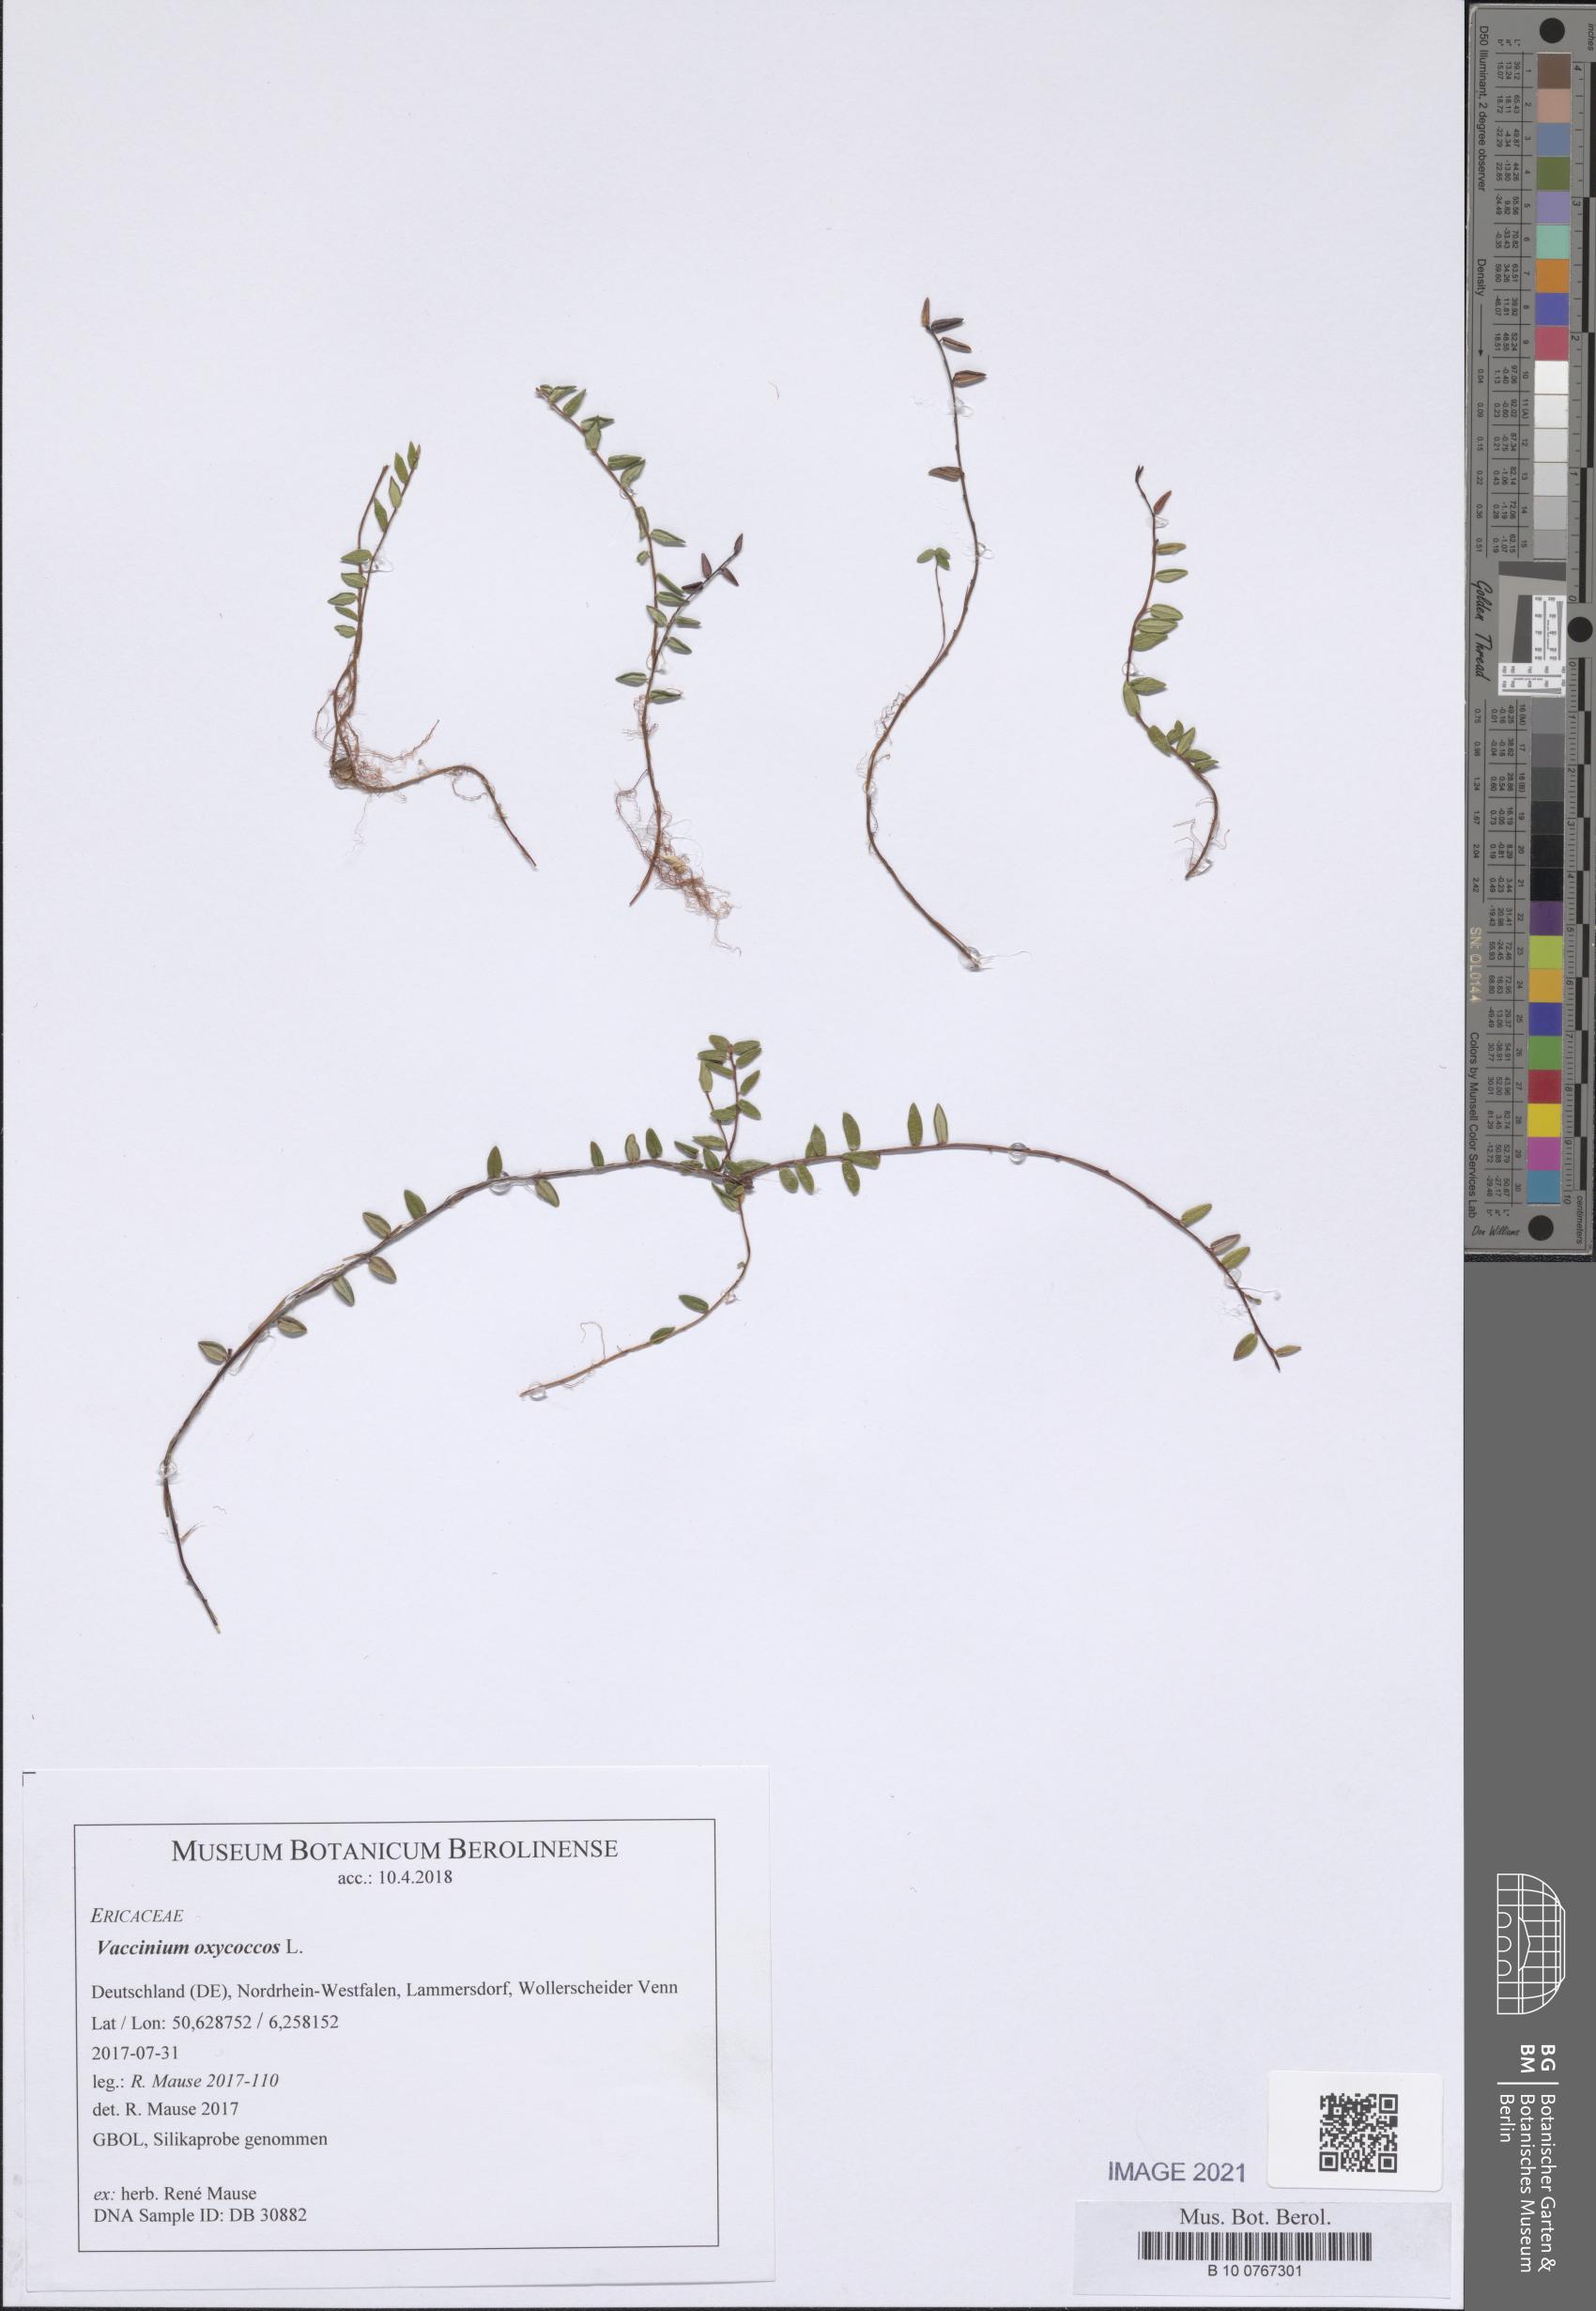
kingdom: Plantae
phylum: Tracheophyta
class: Magnoliopsida
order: Ericales
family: Ericaceae
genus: Vaccinium
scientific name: Vaccinium oxycoccos
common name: Cranberry
